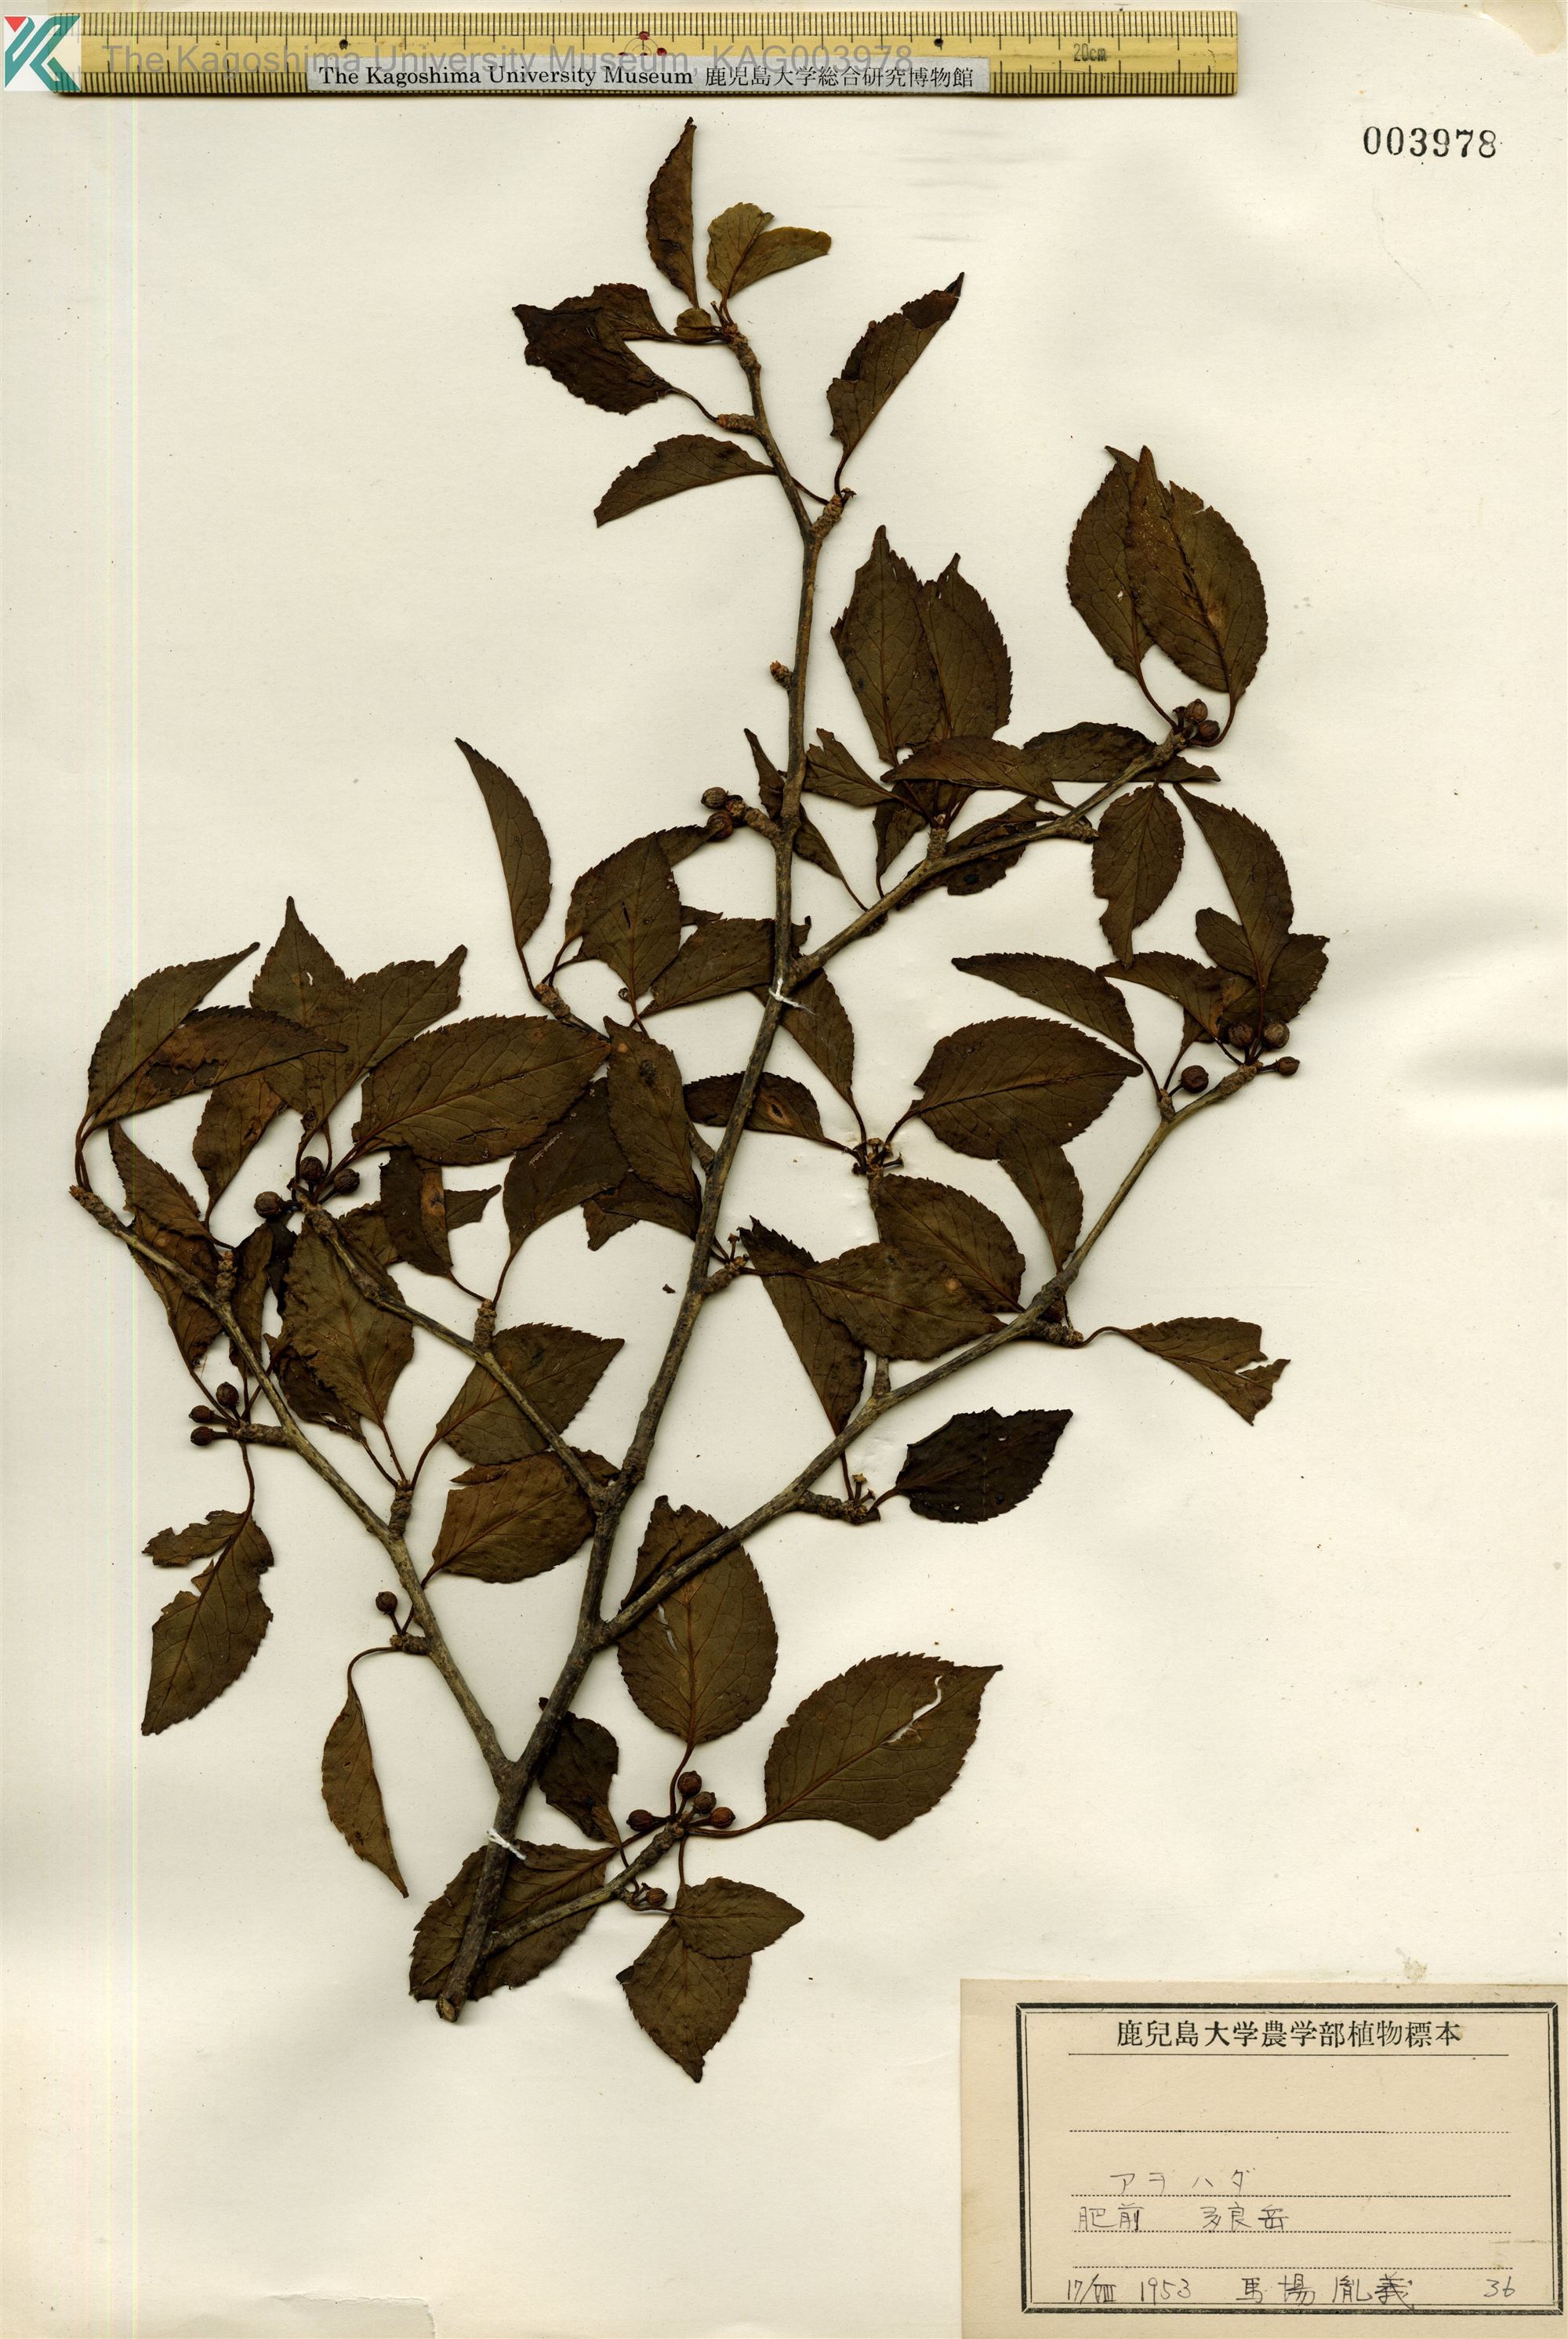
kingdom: Plantae
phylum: Tracheophyta
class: Magnoliopsida
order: Aquifoliales
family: Aquifoliaceae
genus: Ilex
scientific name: Ilex macropoda
